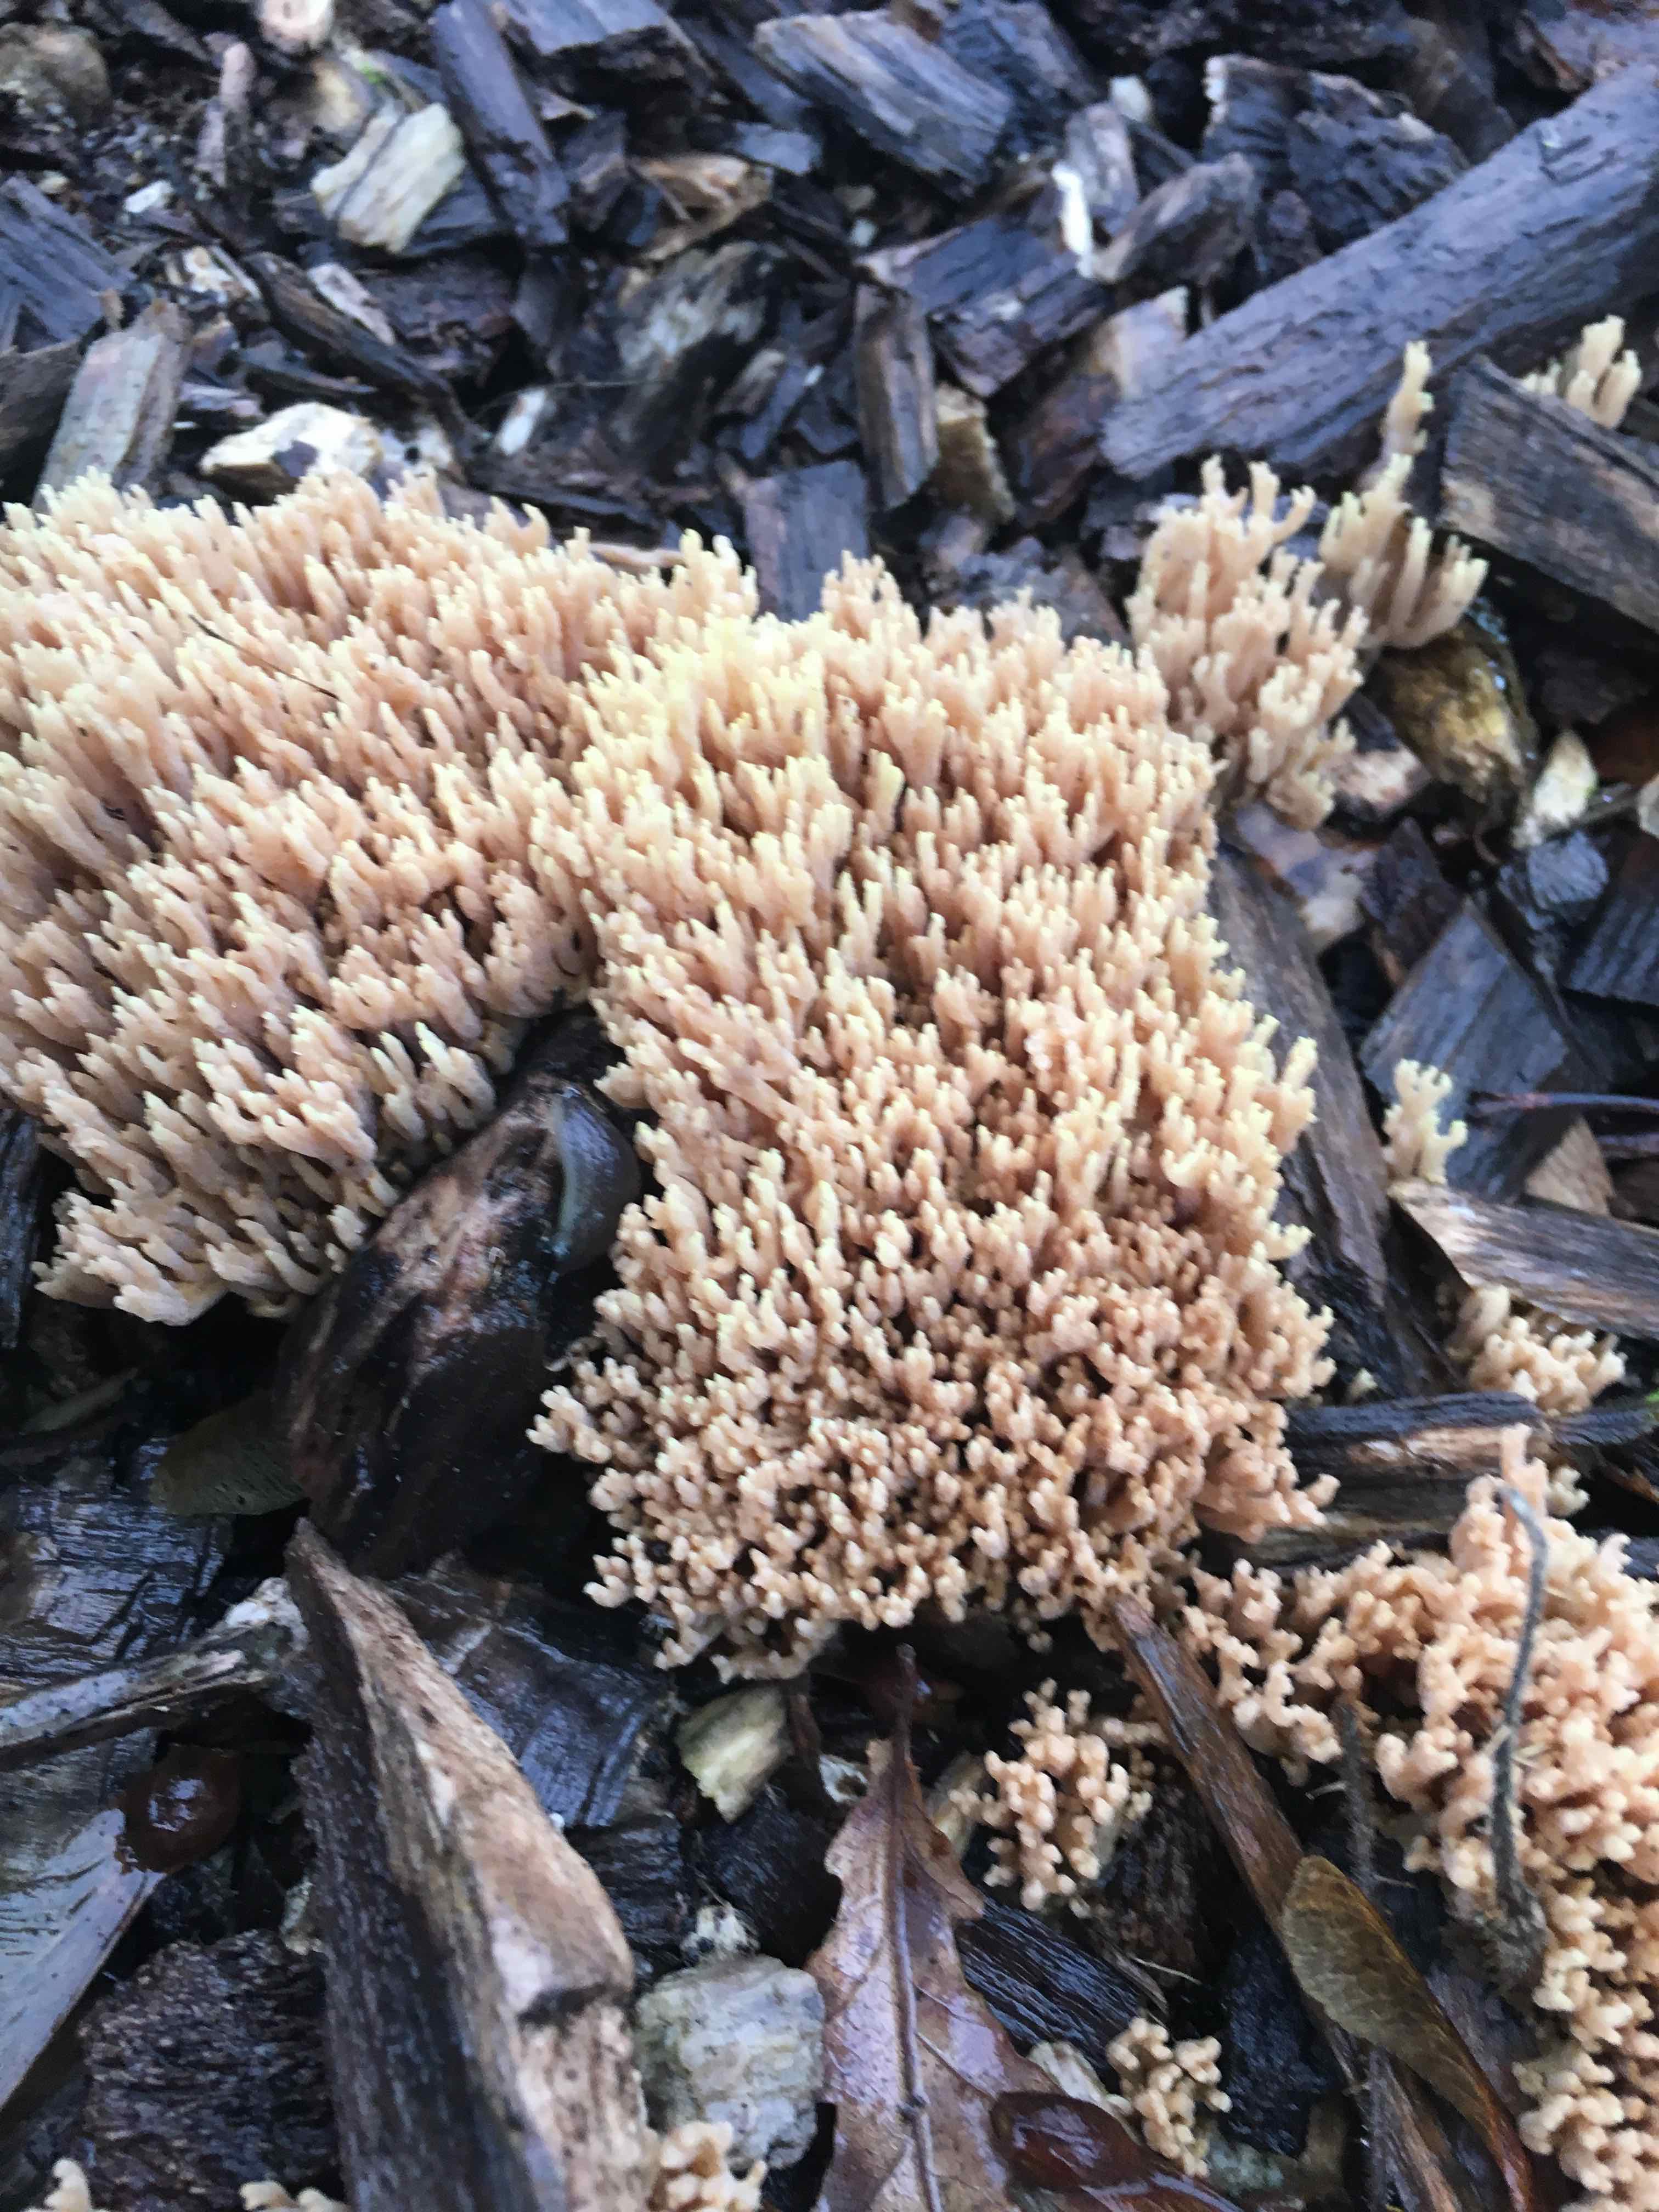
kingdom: Fungi
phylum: Basidiomycota
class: Agaricomycetes
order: Gomphales
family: Gomphaceae
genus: Ramaria
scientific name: Ramaria stricta
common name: rank koralsvamp
